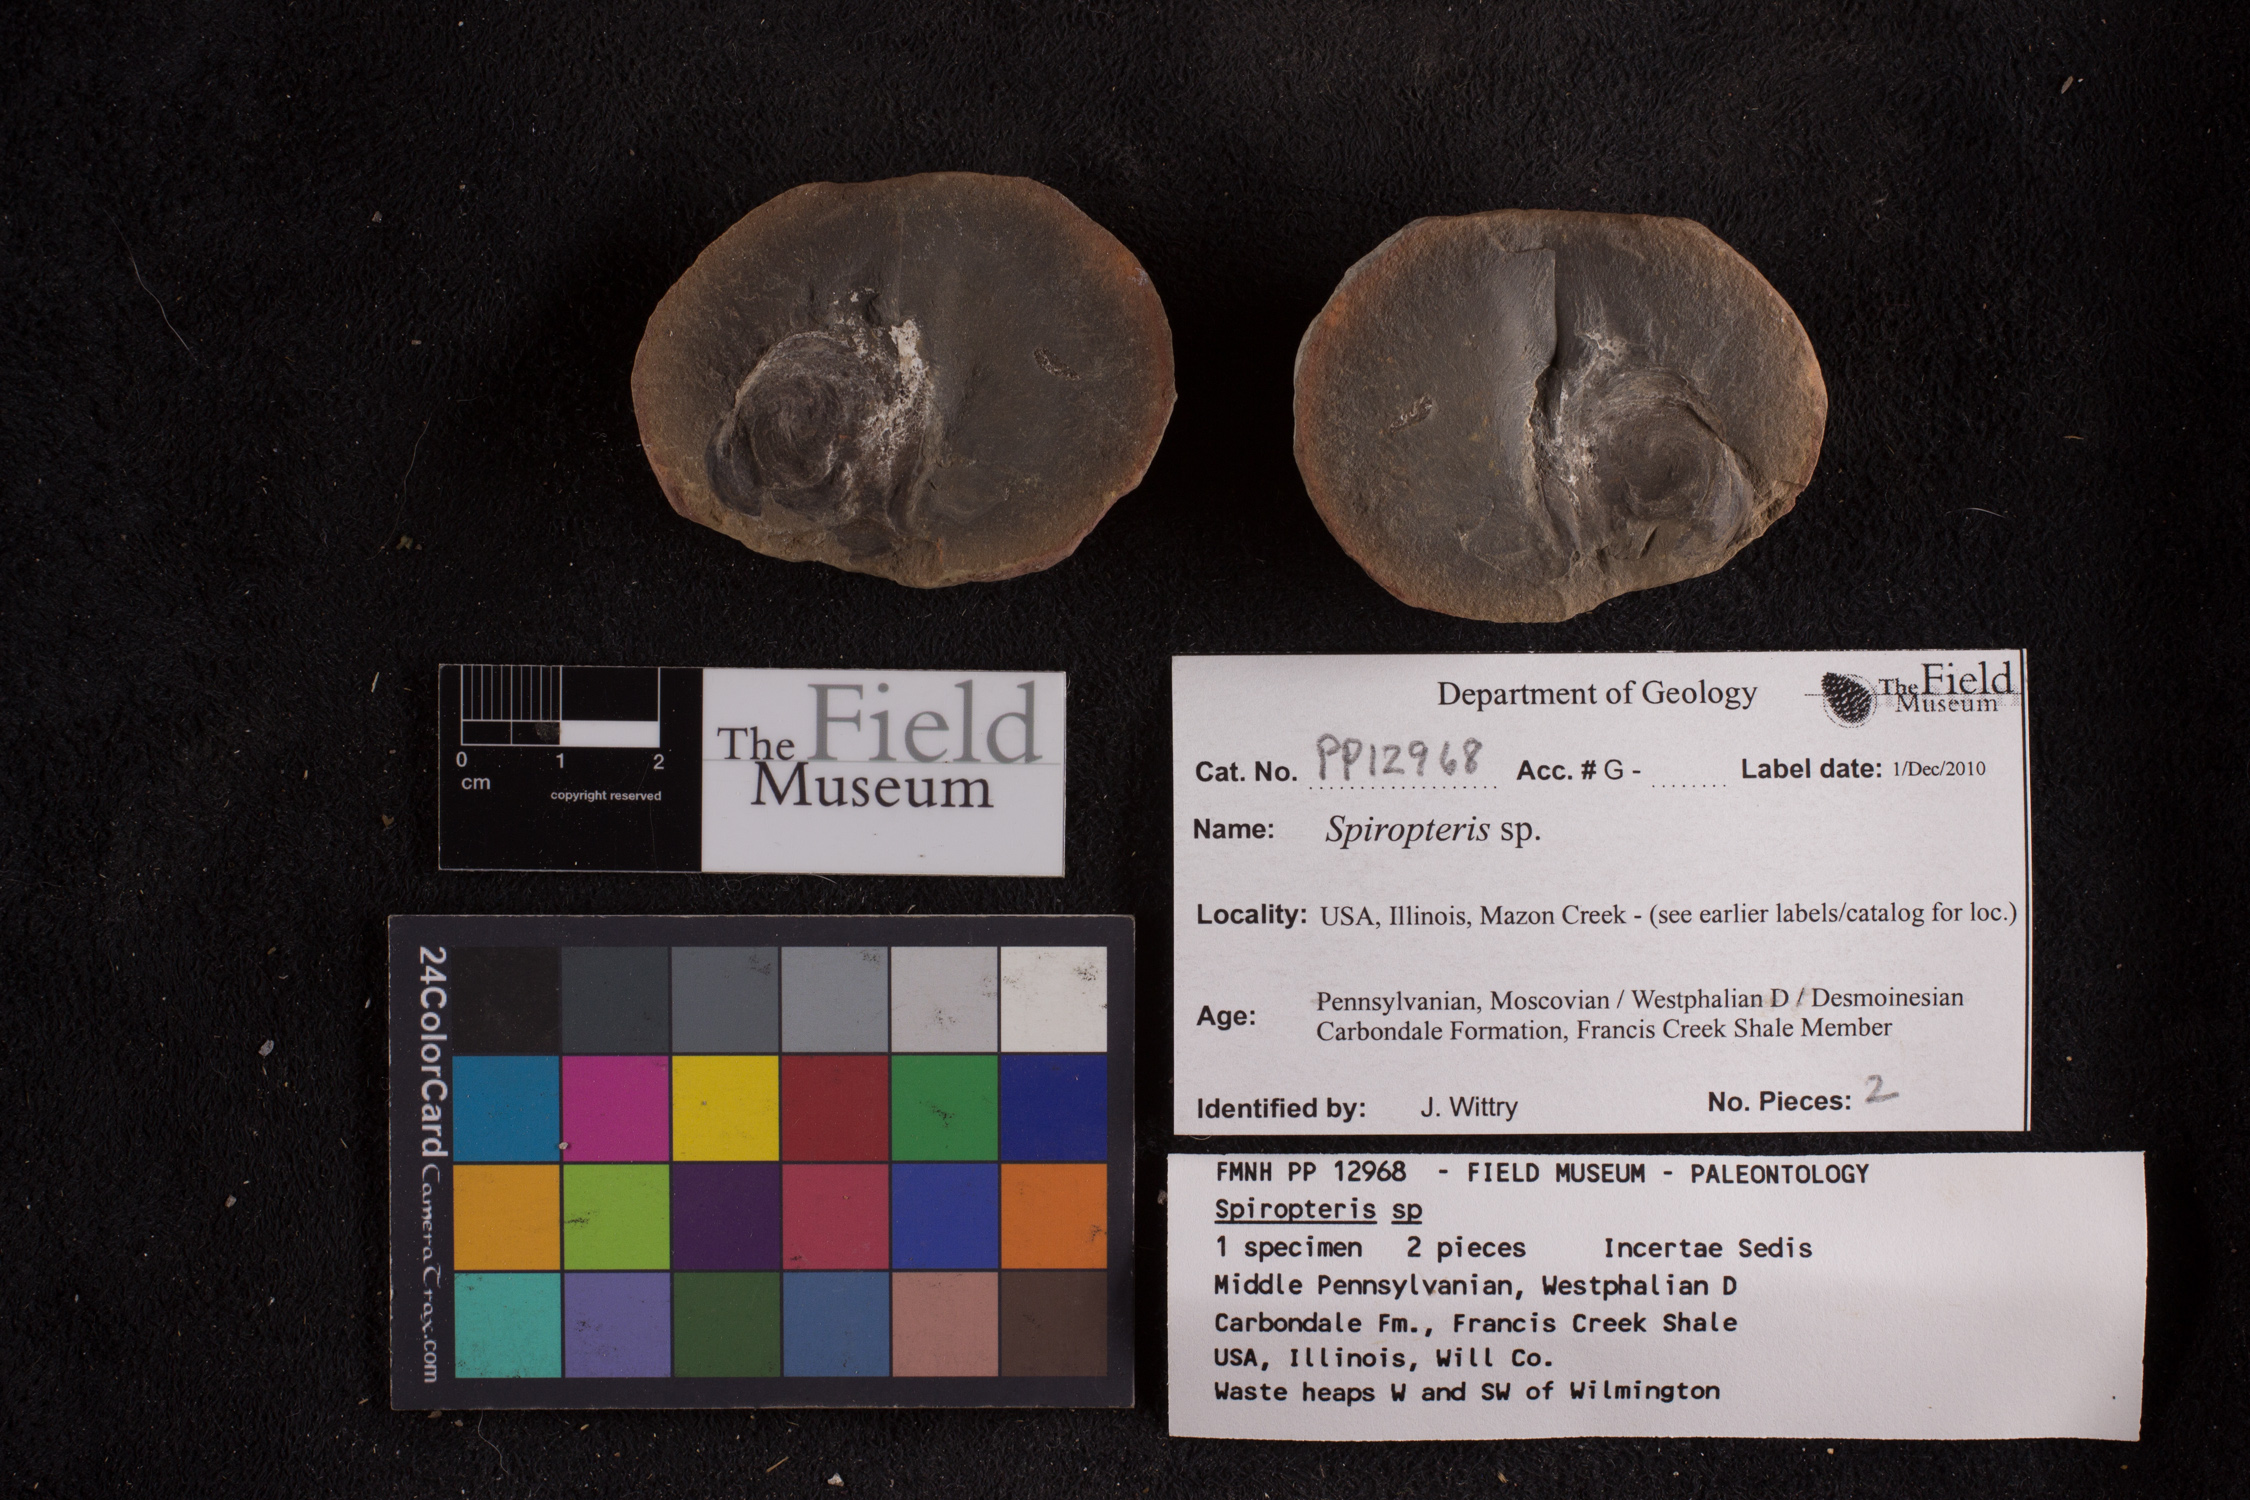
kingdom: Plantae
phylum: Tracheophyta
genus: Spiropteris
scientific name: Spiropteris
